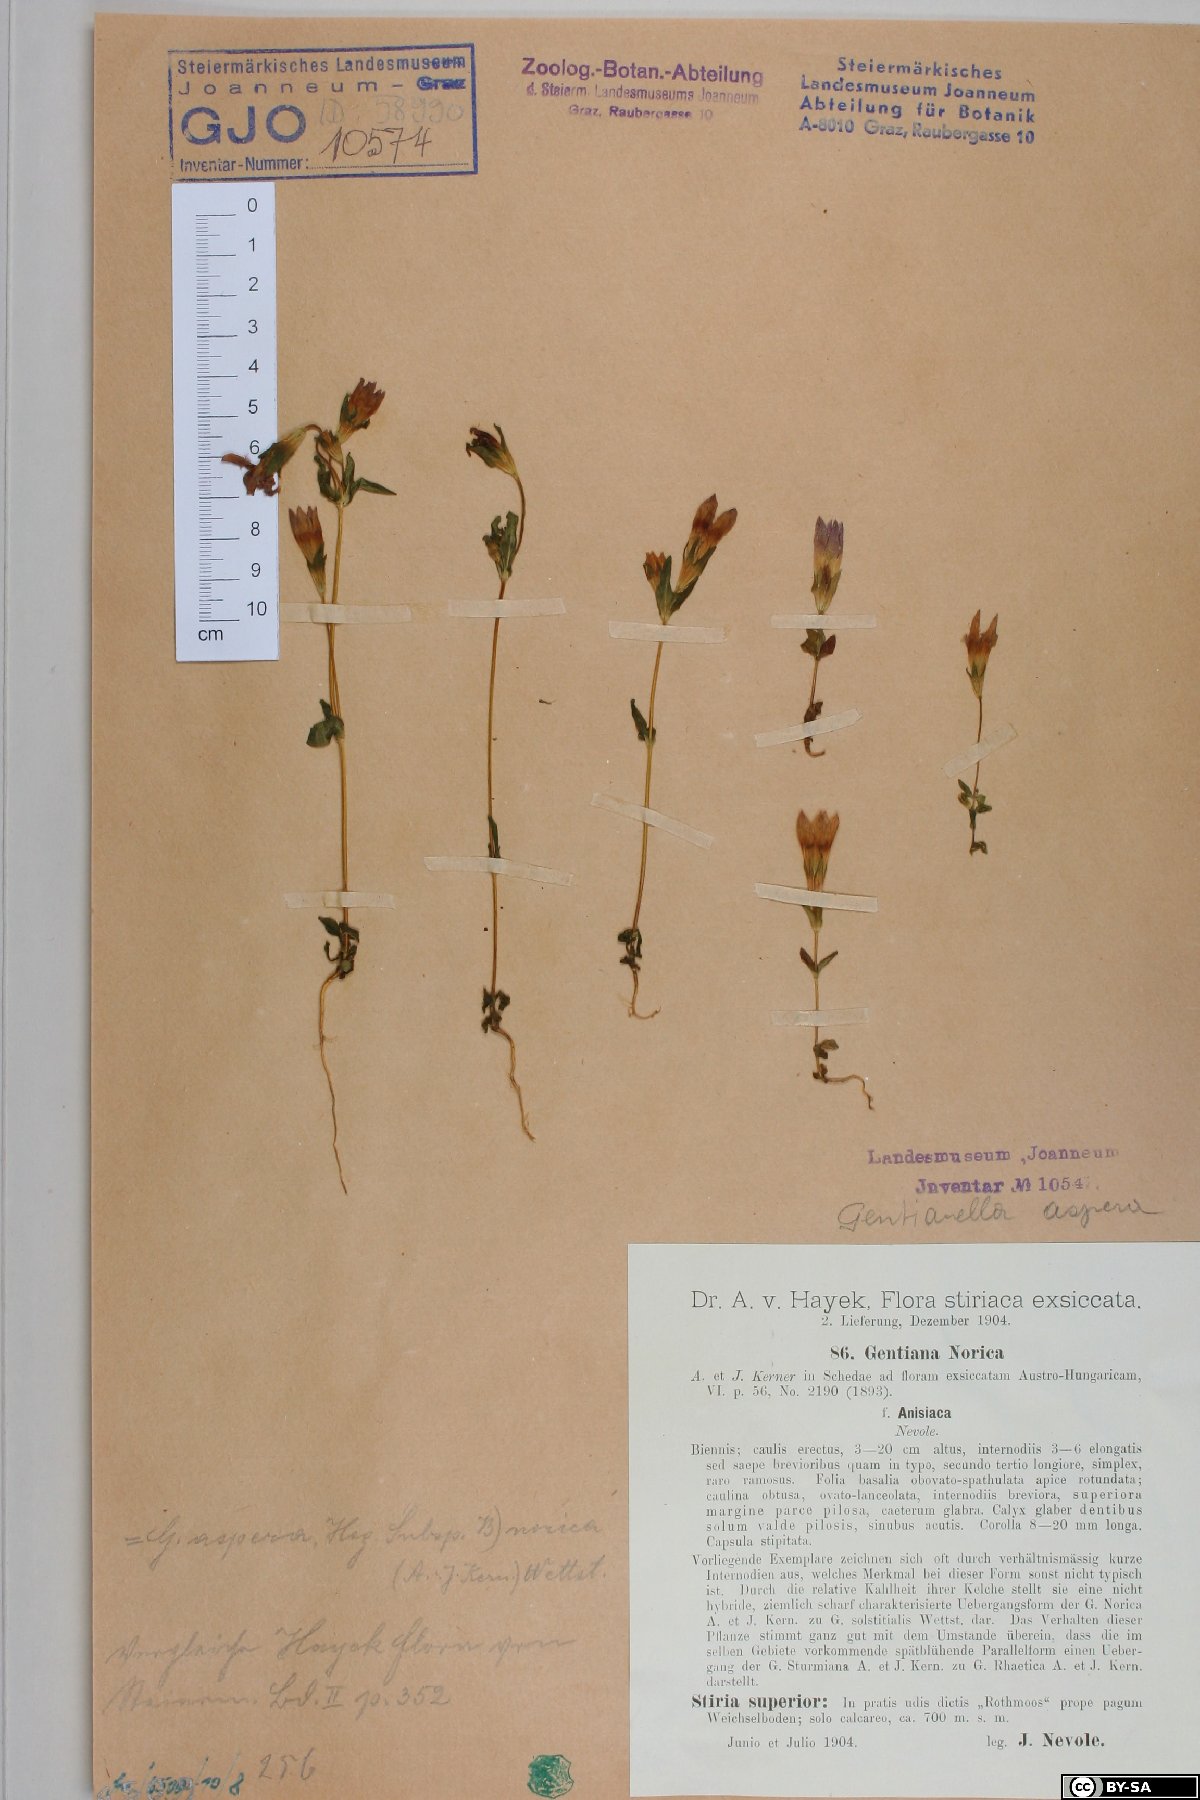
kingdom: Plantae
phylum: Tracheophyta
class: Magnoliopsida
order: Gentianales
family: Gentianaceae
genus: Gentianella
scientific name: Gentianella obtusifolia
